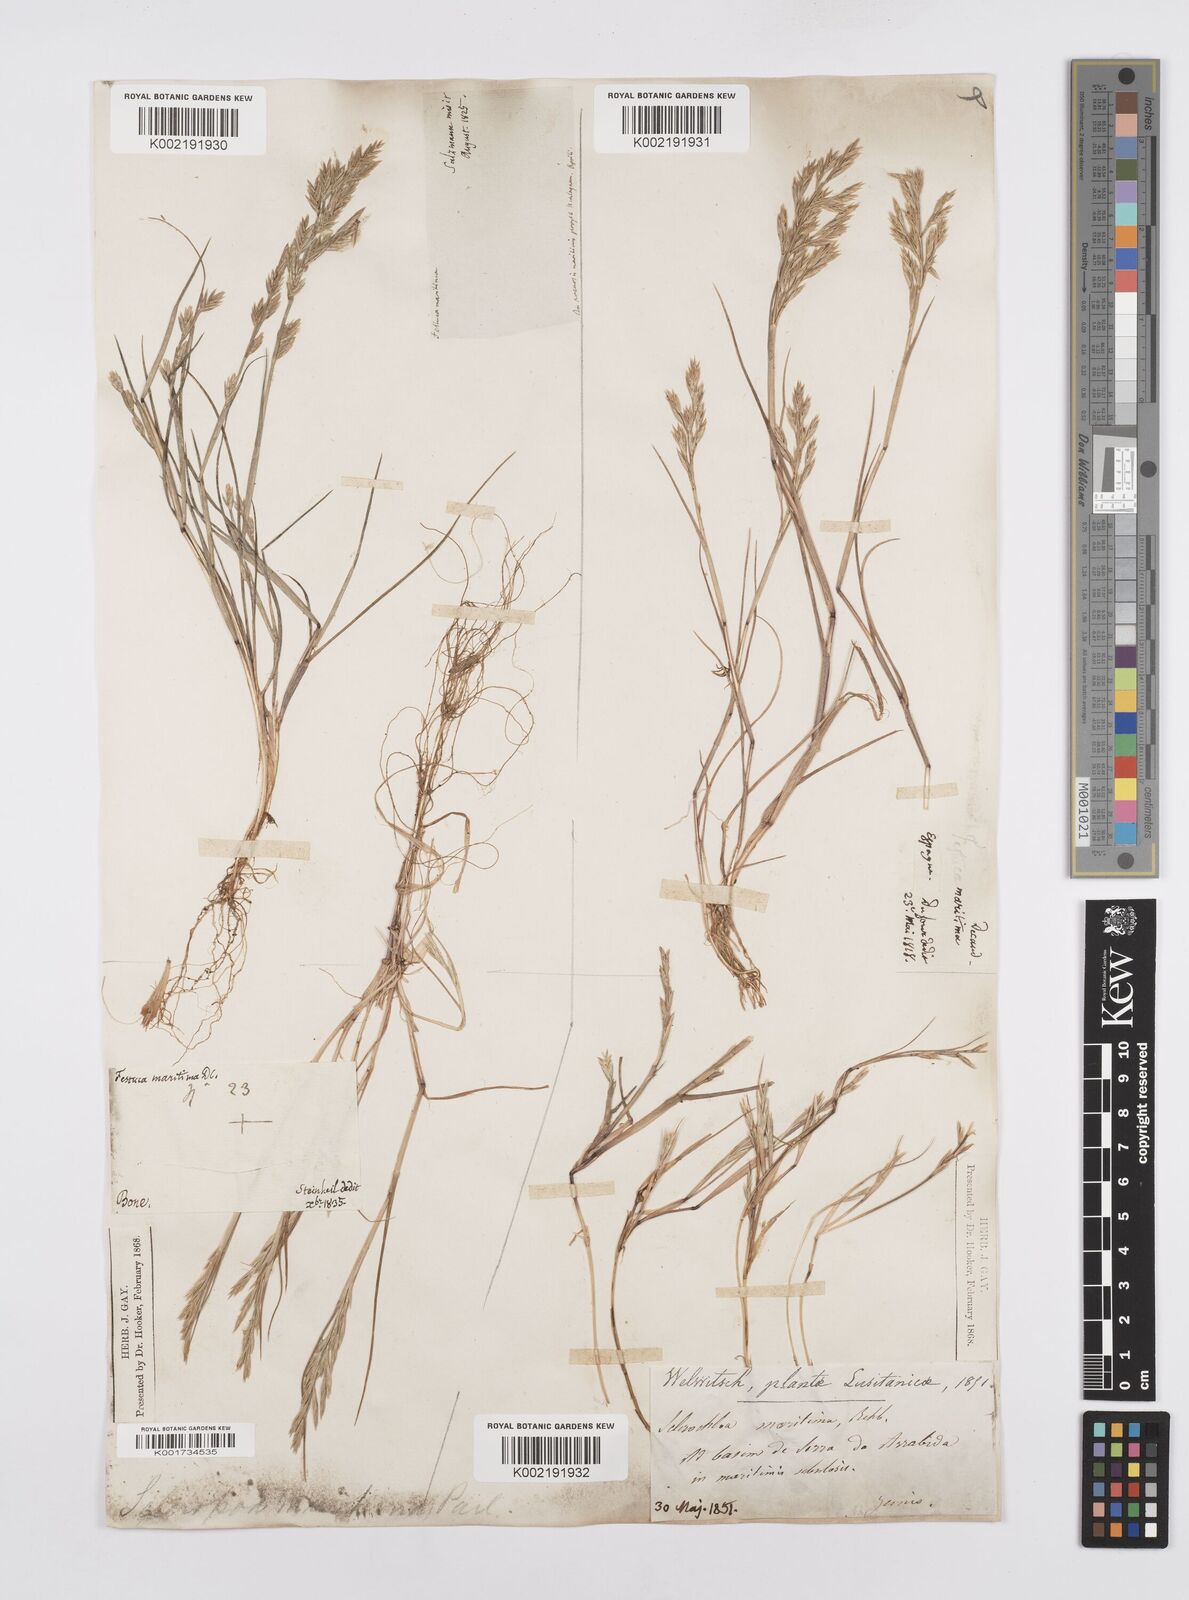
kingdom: Plantae
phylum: Tracheophyta
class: Liliopsida
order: Poales
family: Poaceae
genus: Cutandia
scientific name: Cutandia maritima
